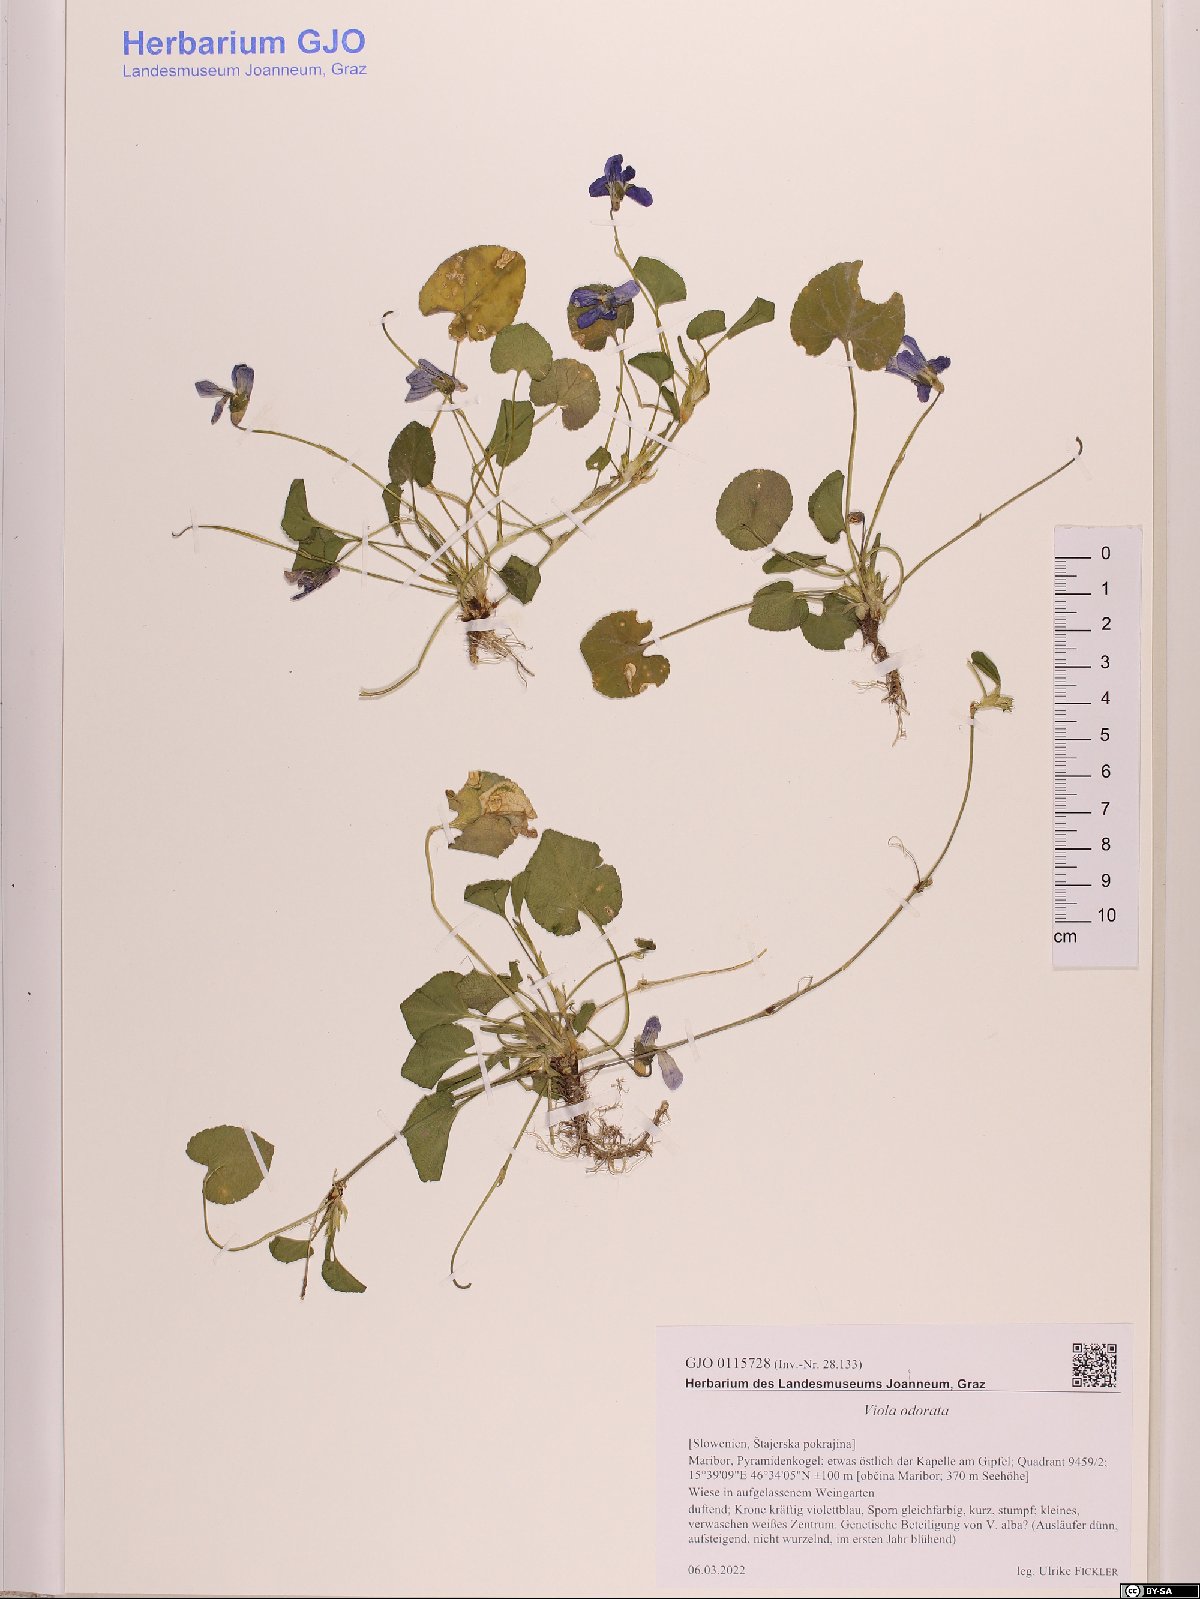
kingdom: Plantae
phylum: Tracheophyta
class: Magnoliopsida
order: Malpighiales
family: Violaceae
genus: Viola
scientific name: Viola odorata
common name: Sweet violet
